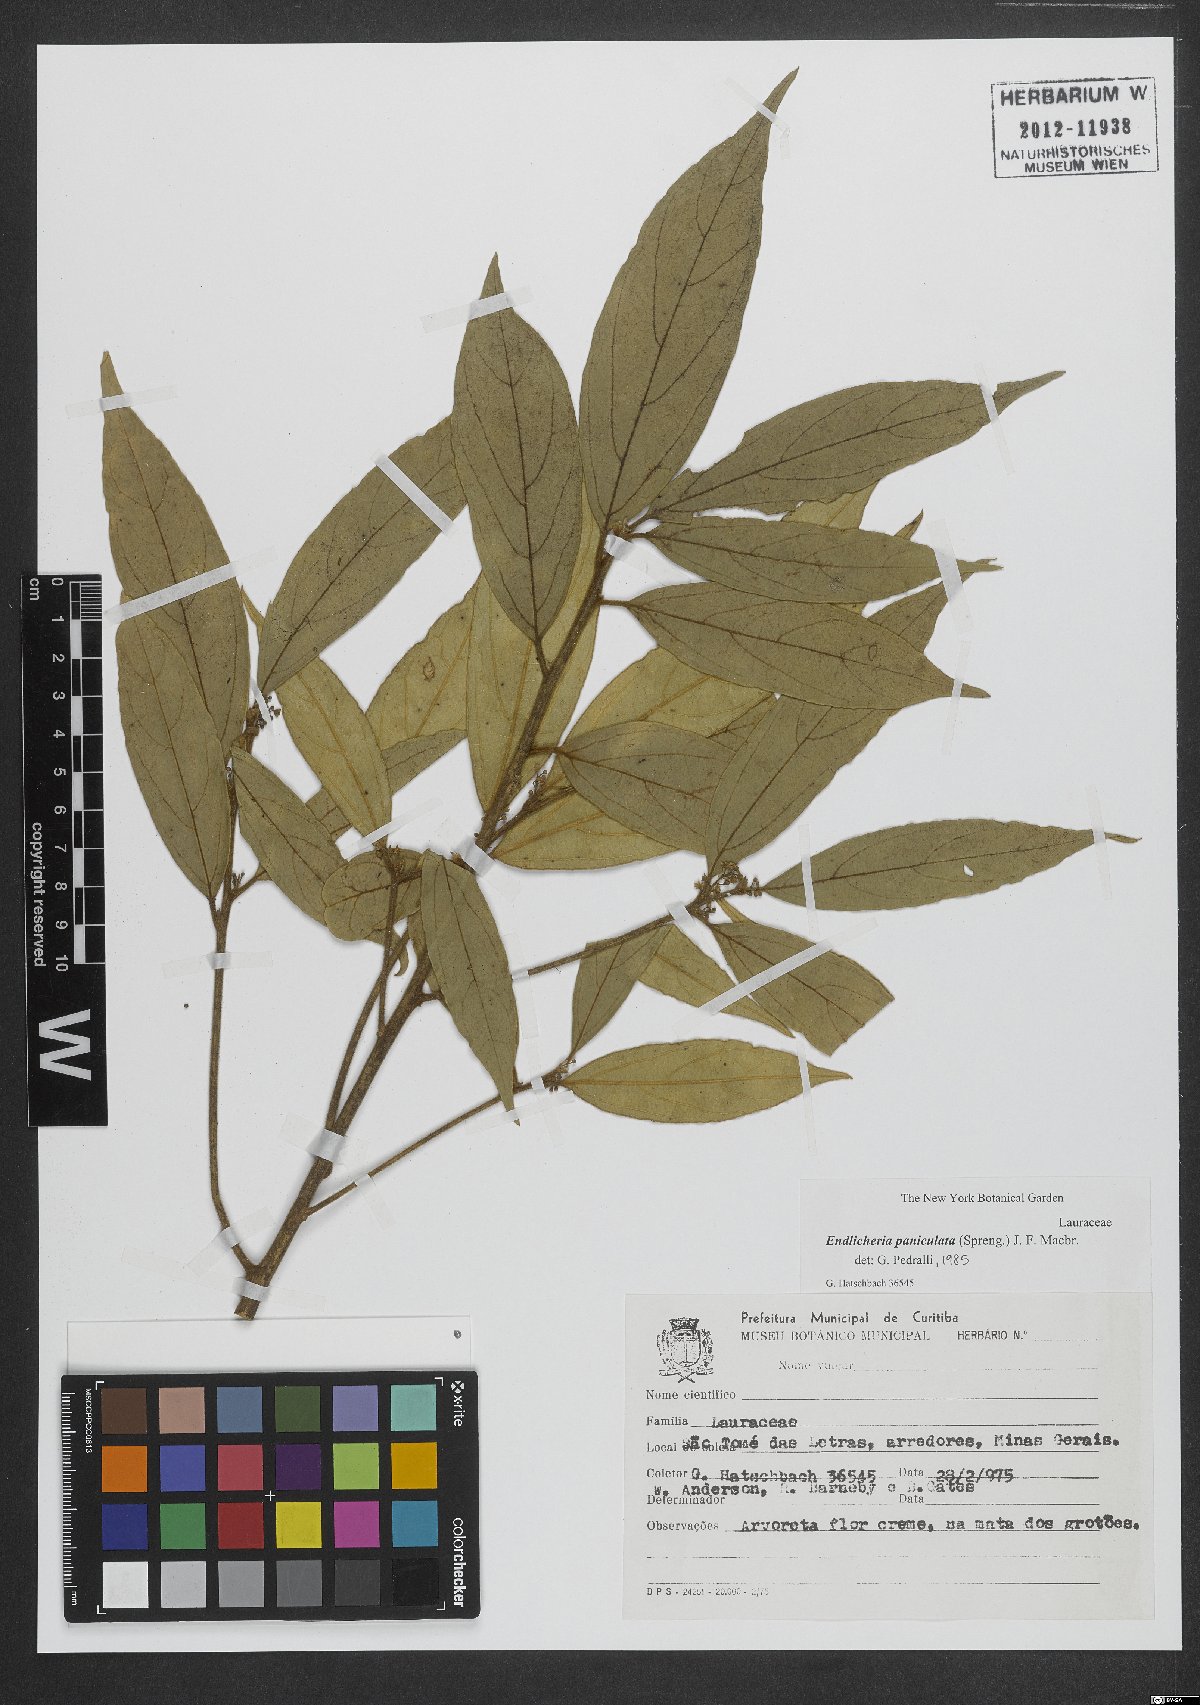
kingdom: Plantae
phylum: Tracheophyta
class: Magnoliopsida
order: Laurales
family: Lauraceae
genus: Endlicheria
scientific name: Endlicheria paniculata
